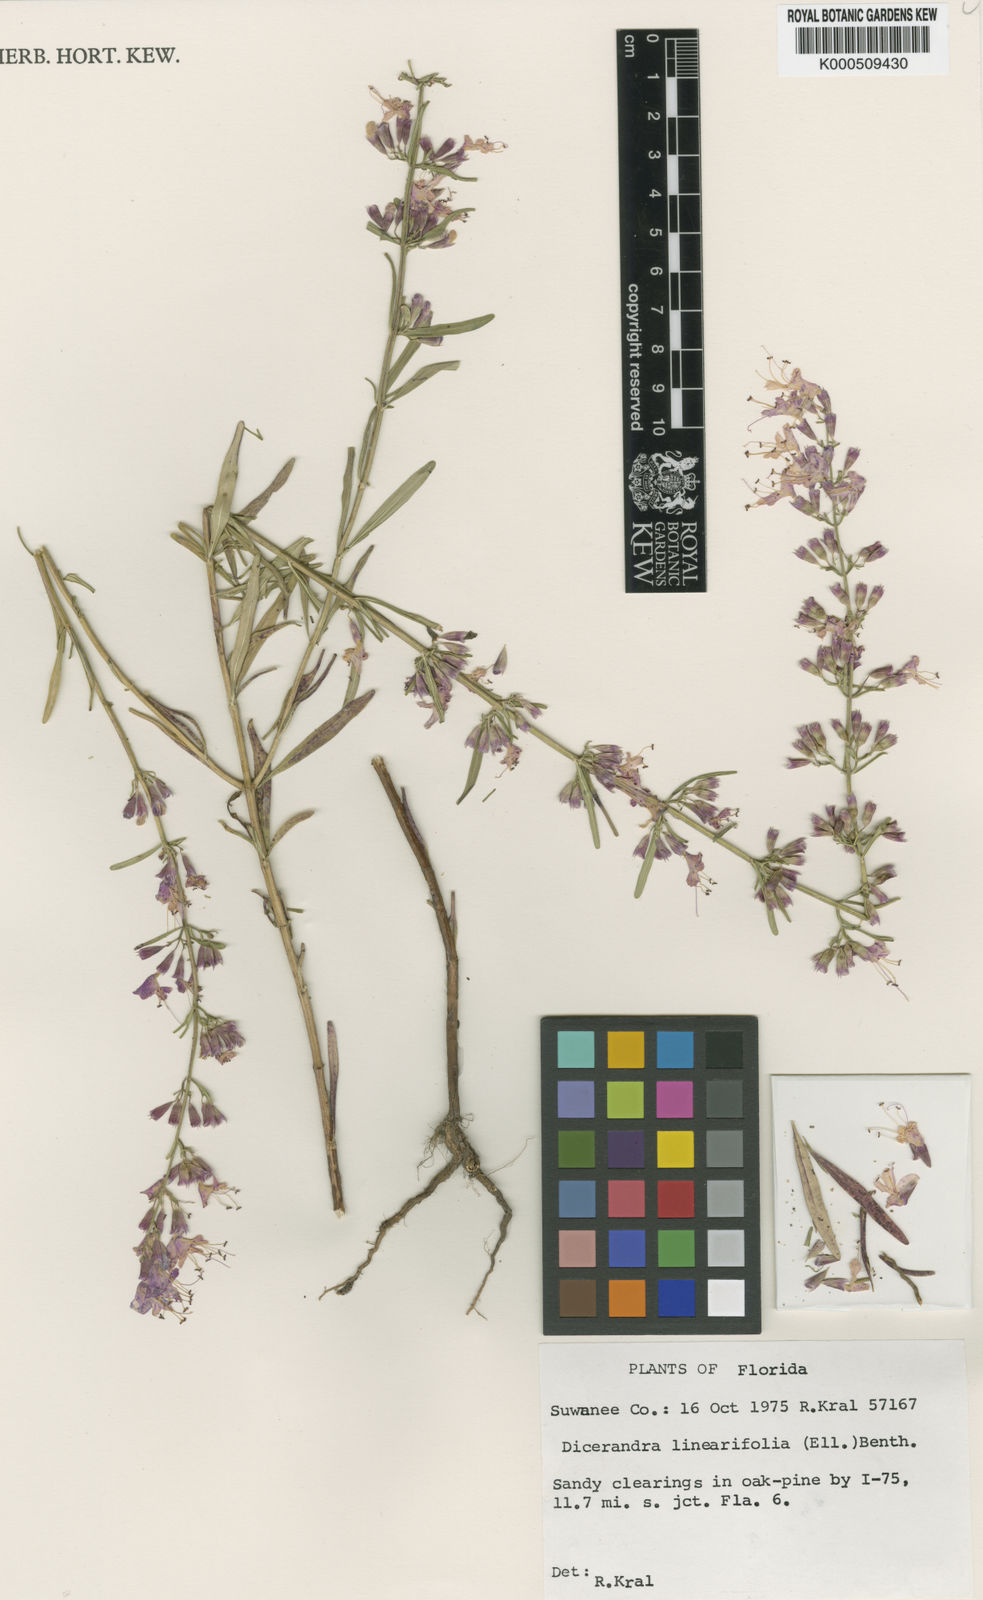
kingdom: Plantae
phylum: Tracheophyta
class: Magnoliopsida
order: Lamiales
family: Lamiaceae
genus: Dicerandra
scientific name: Dicerandra linearifolia
